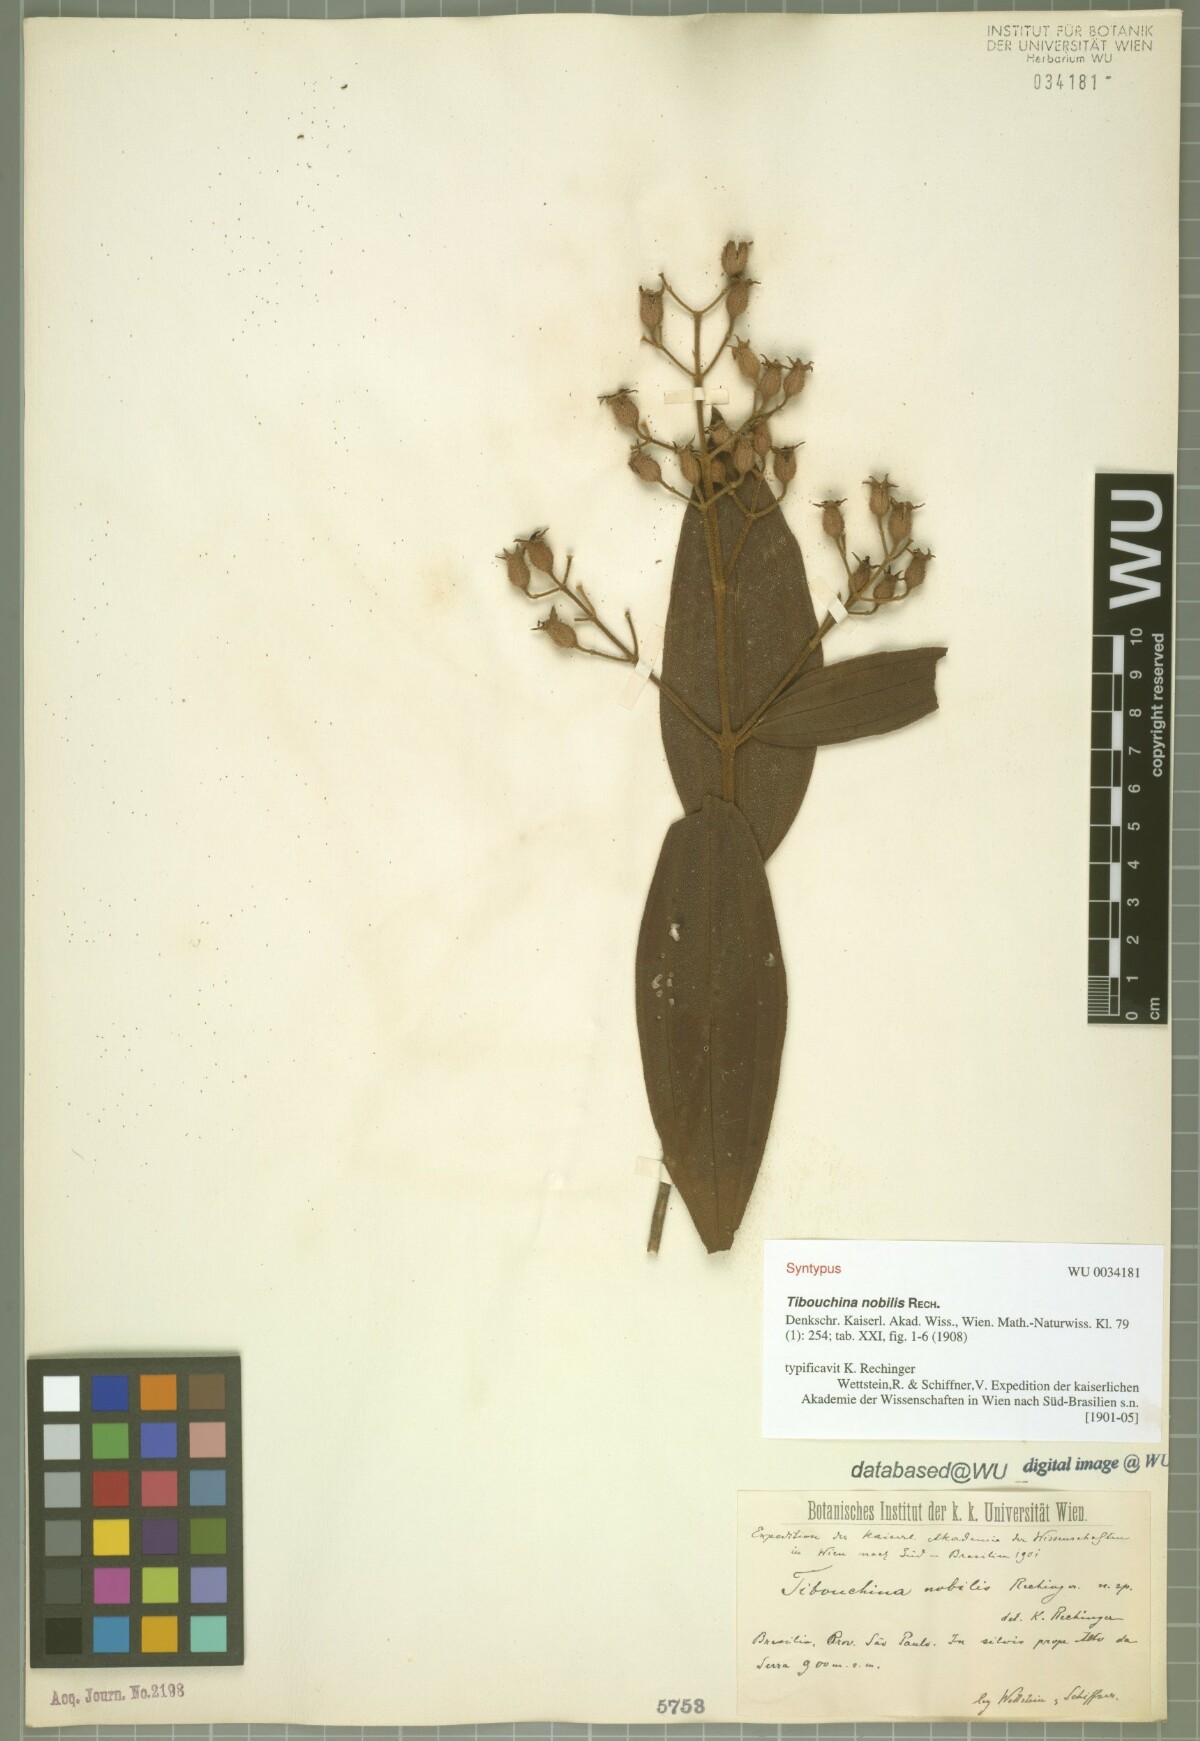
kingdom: Plantae
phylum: Tracheophyta
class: Magnoliopsida
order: Myrtales
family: Melastomataceae
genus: Pleroma
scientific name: Pleroma scaberrimum
